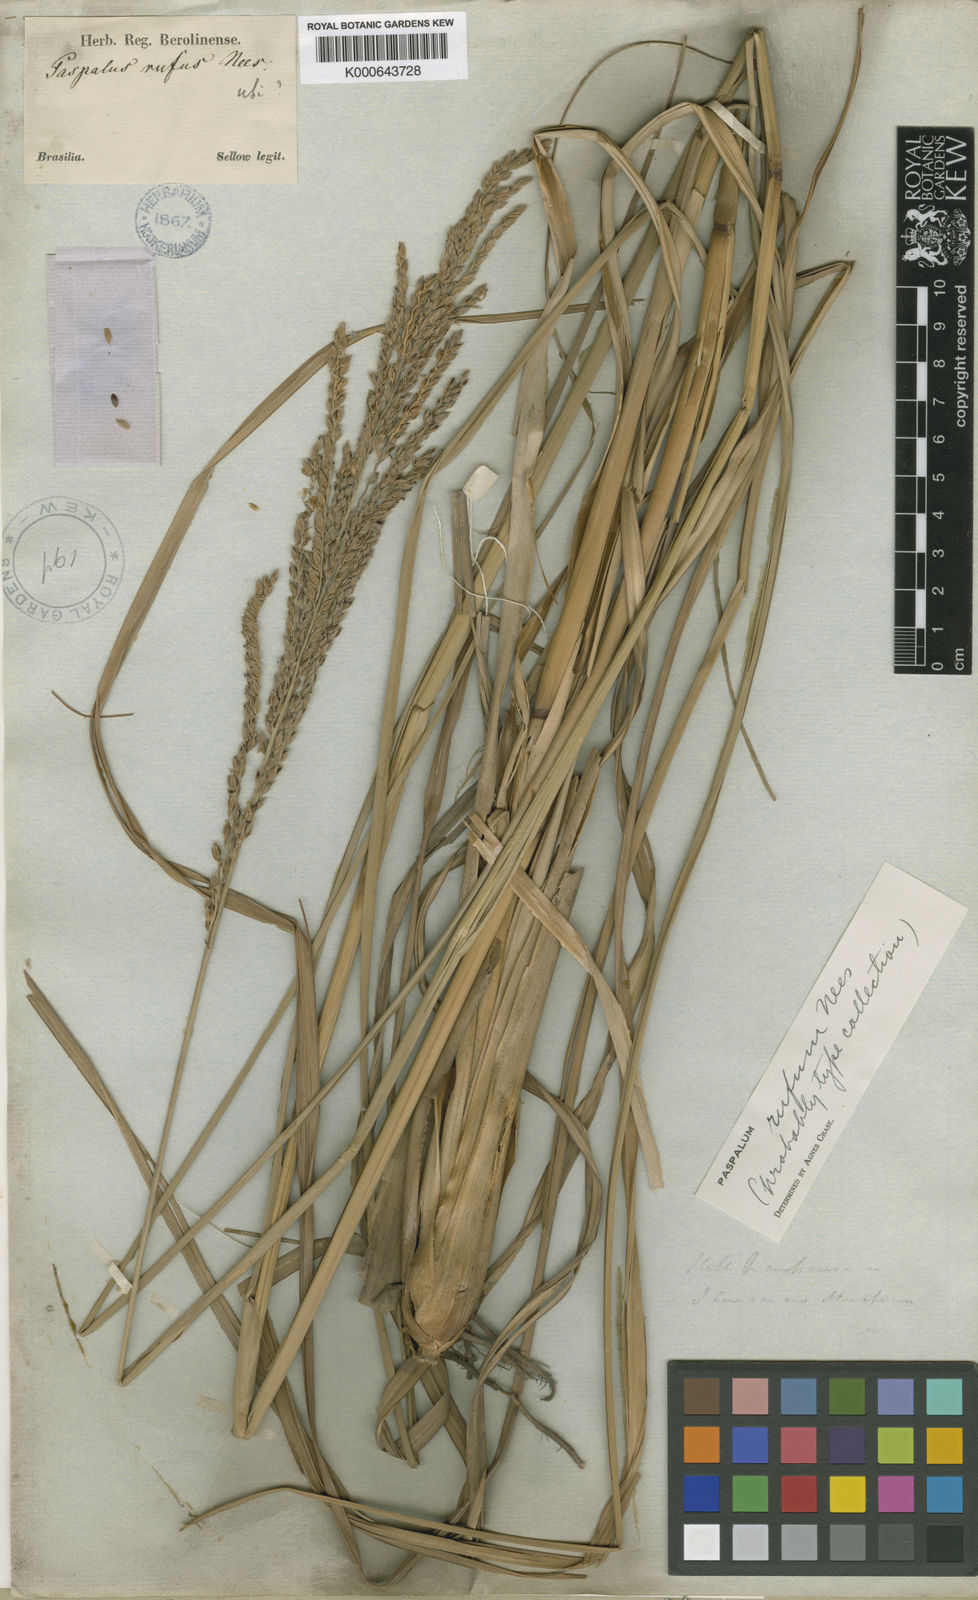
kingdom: Plantae
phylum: Tracheophyta
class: Liliopsida
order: Poales
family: Poaceae
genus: Paspalum
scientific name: Paspalum rufum
